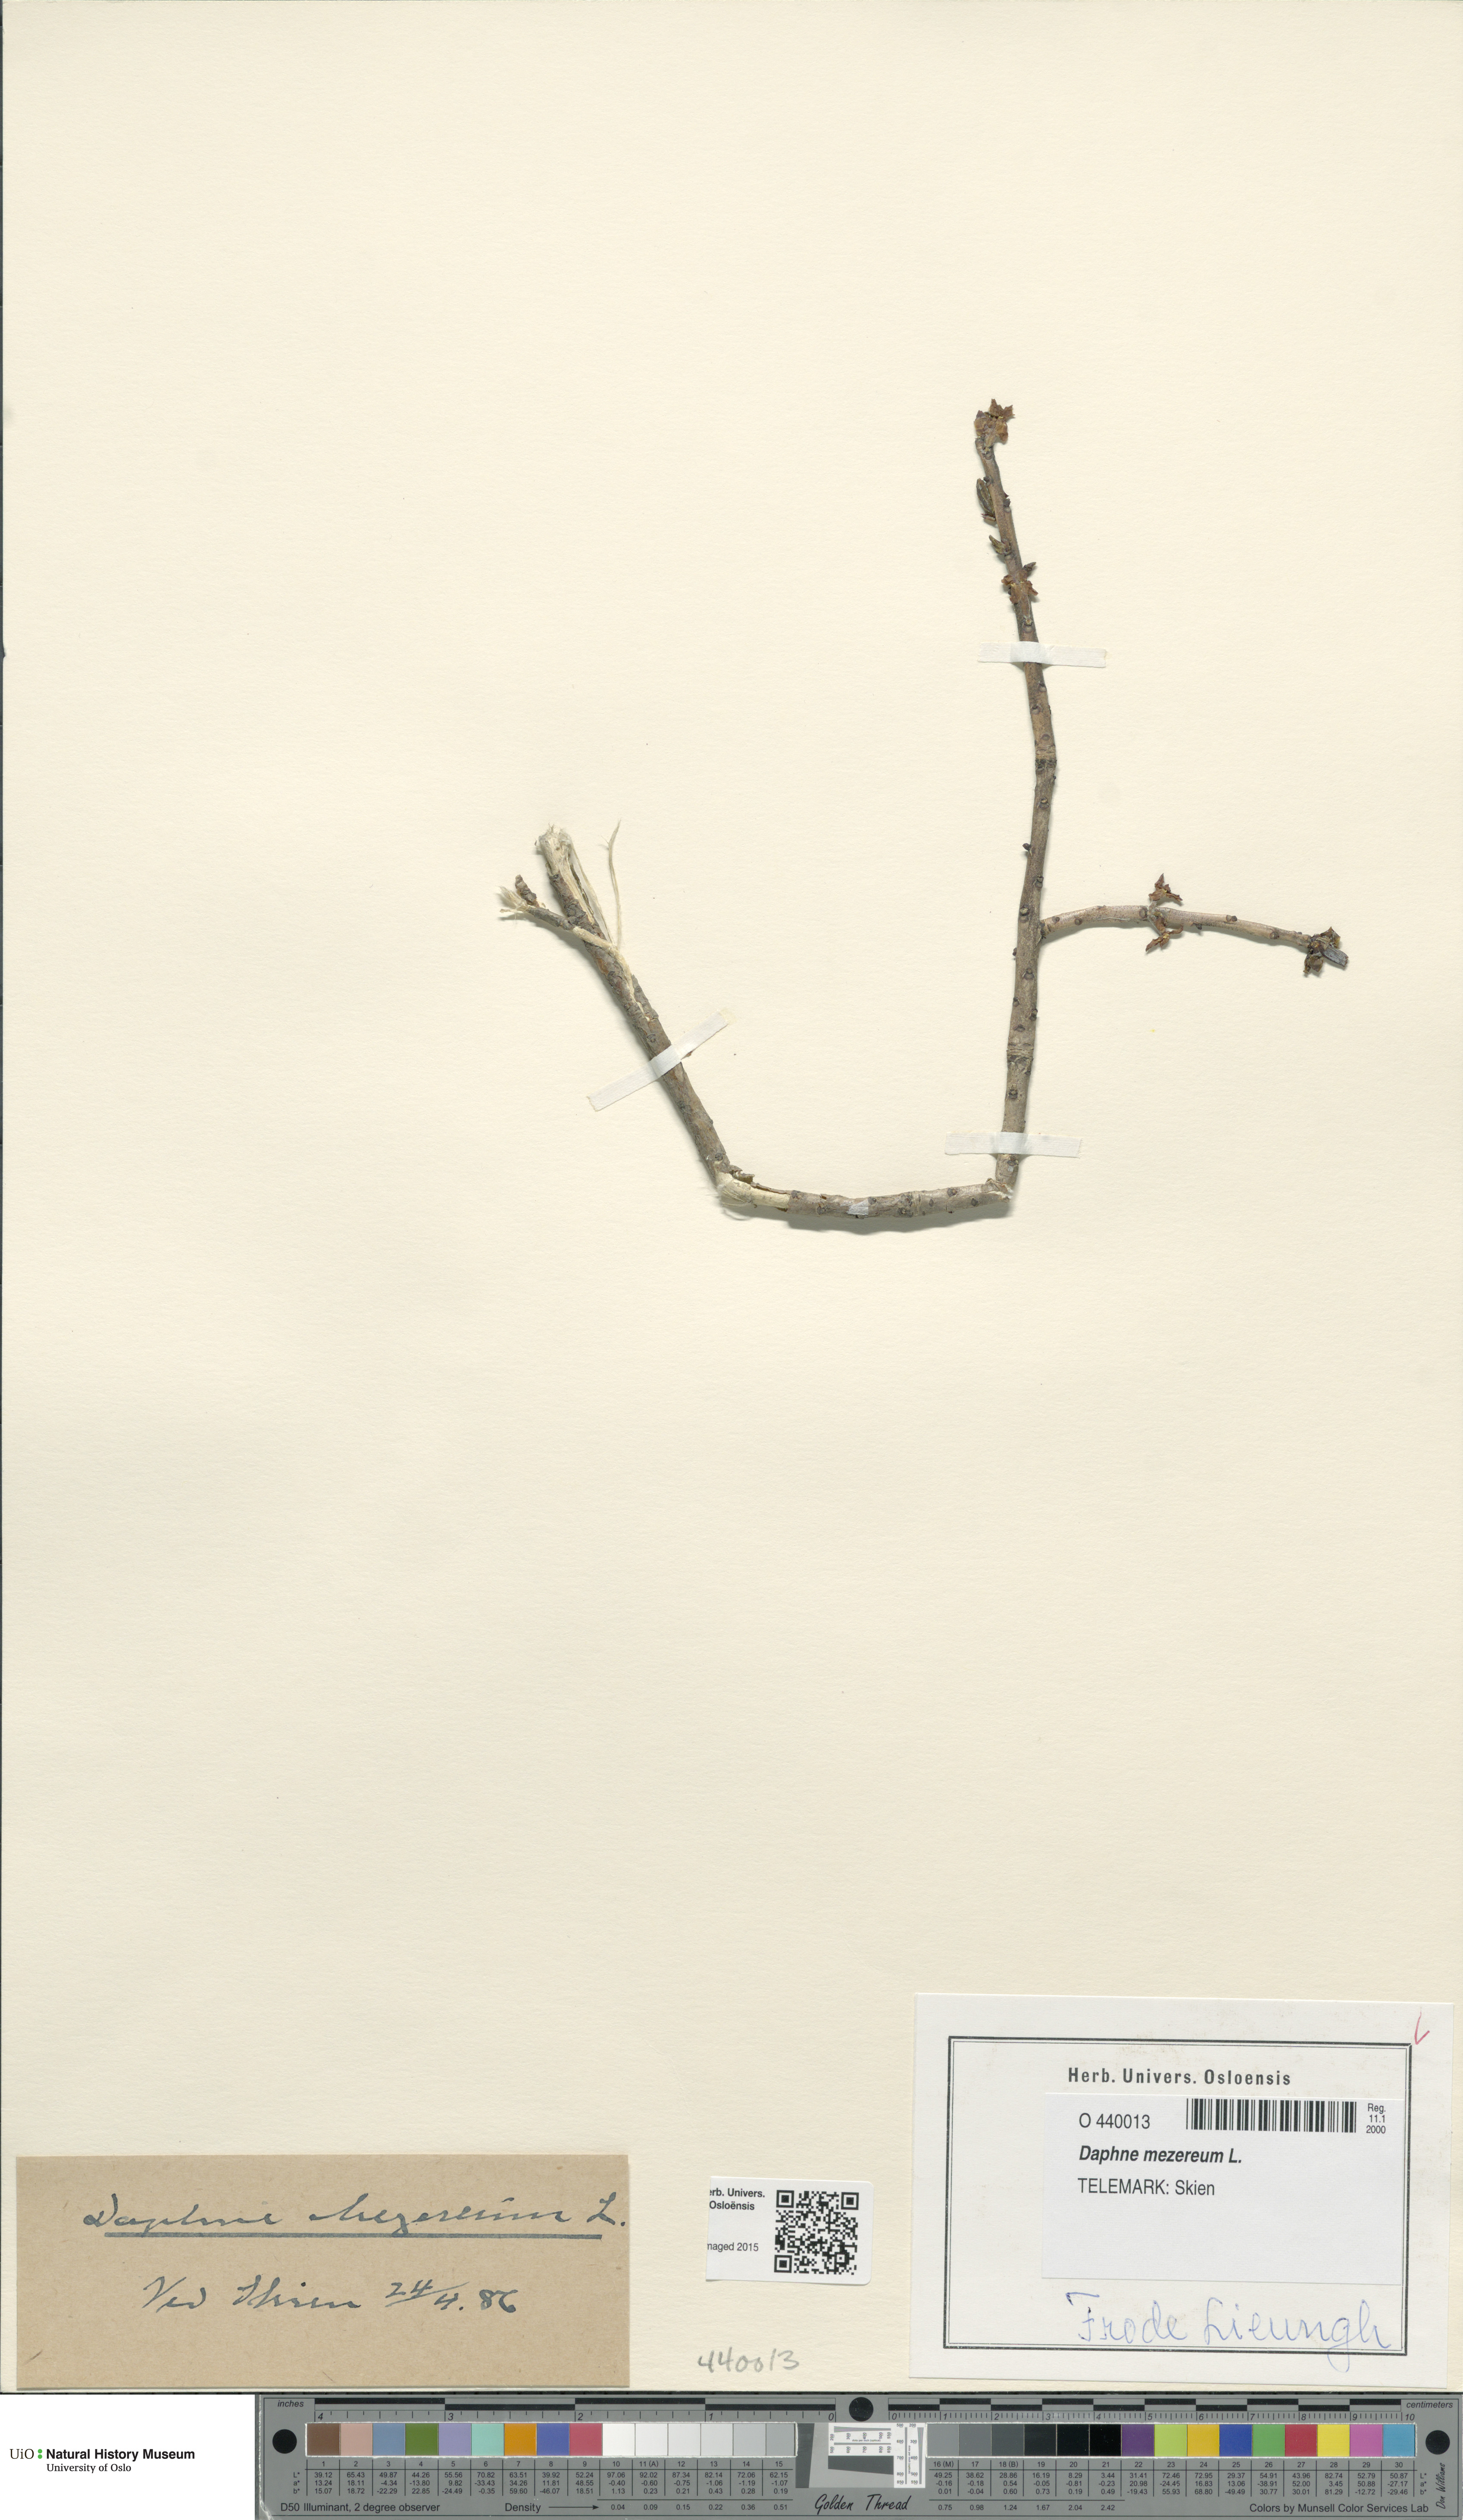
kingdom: Plantae
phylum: Tracheophyta
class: Magnoliopsida
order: Malvales
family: Thymelaeaceae
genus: Daphne
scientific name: Daphne mezereum
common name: Mezereon
